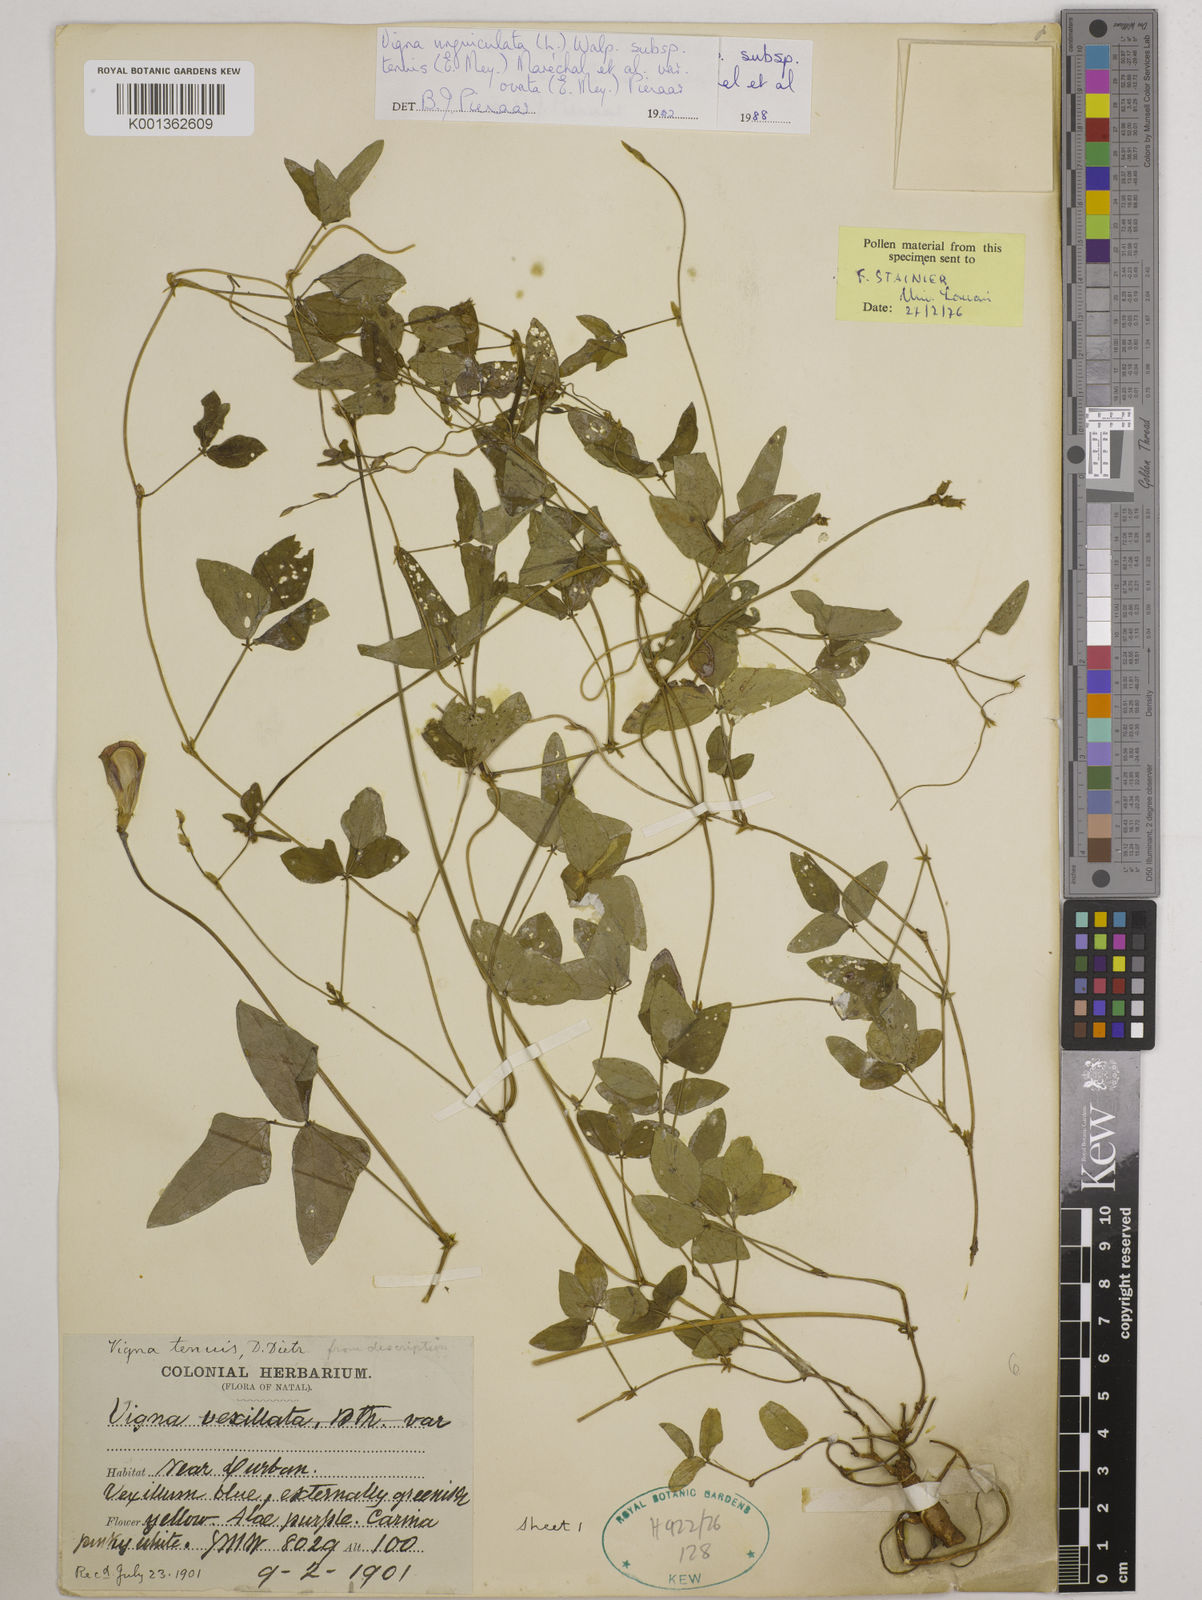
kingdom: Plantae
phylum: Tracheophyta
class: Magnoliopsida
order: Fabales
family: Fabaceae
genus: Vigna
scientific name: Vigna
